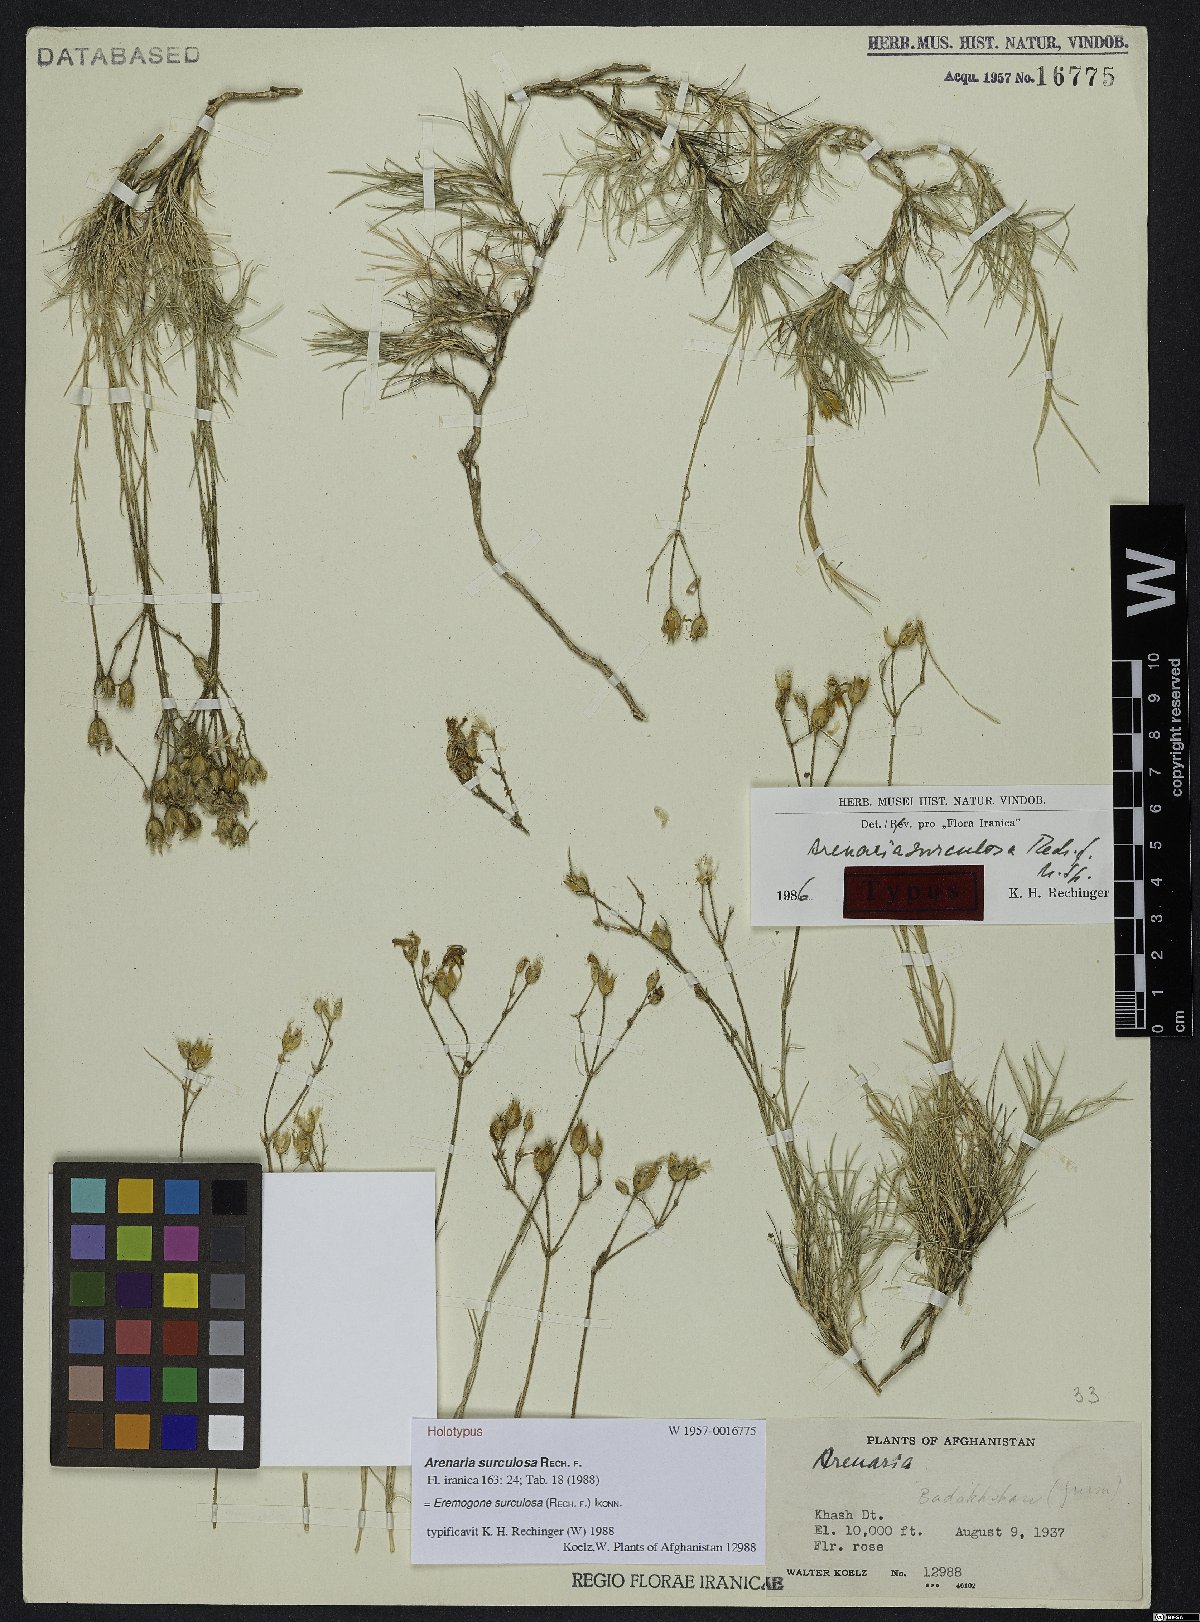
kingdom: Plantae
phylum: Tracheophyta
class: Magnoliopsida
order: Caryophyllales
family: Caryophyllaceae
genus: Eremogone
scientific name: Eremogone surculosa
